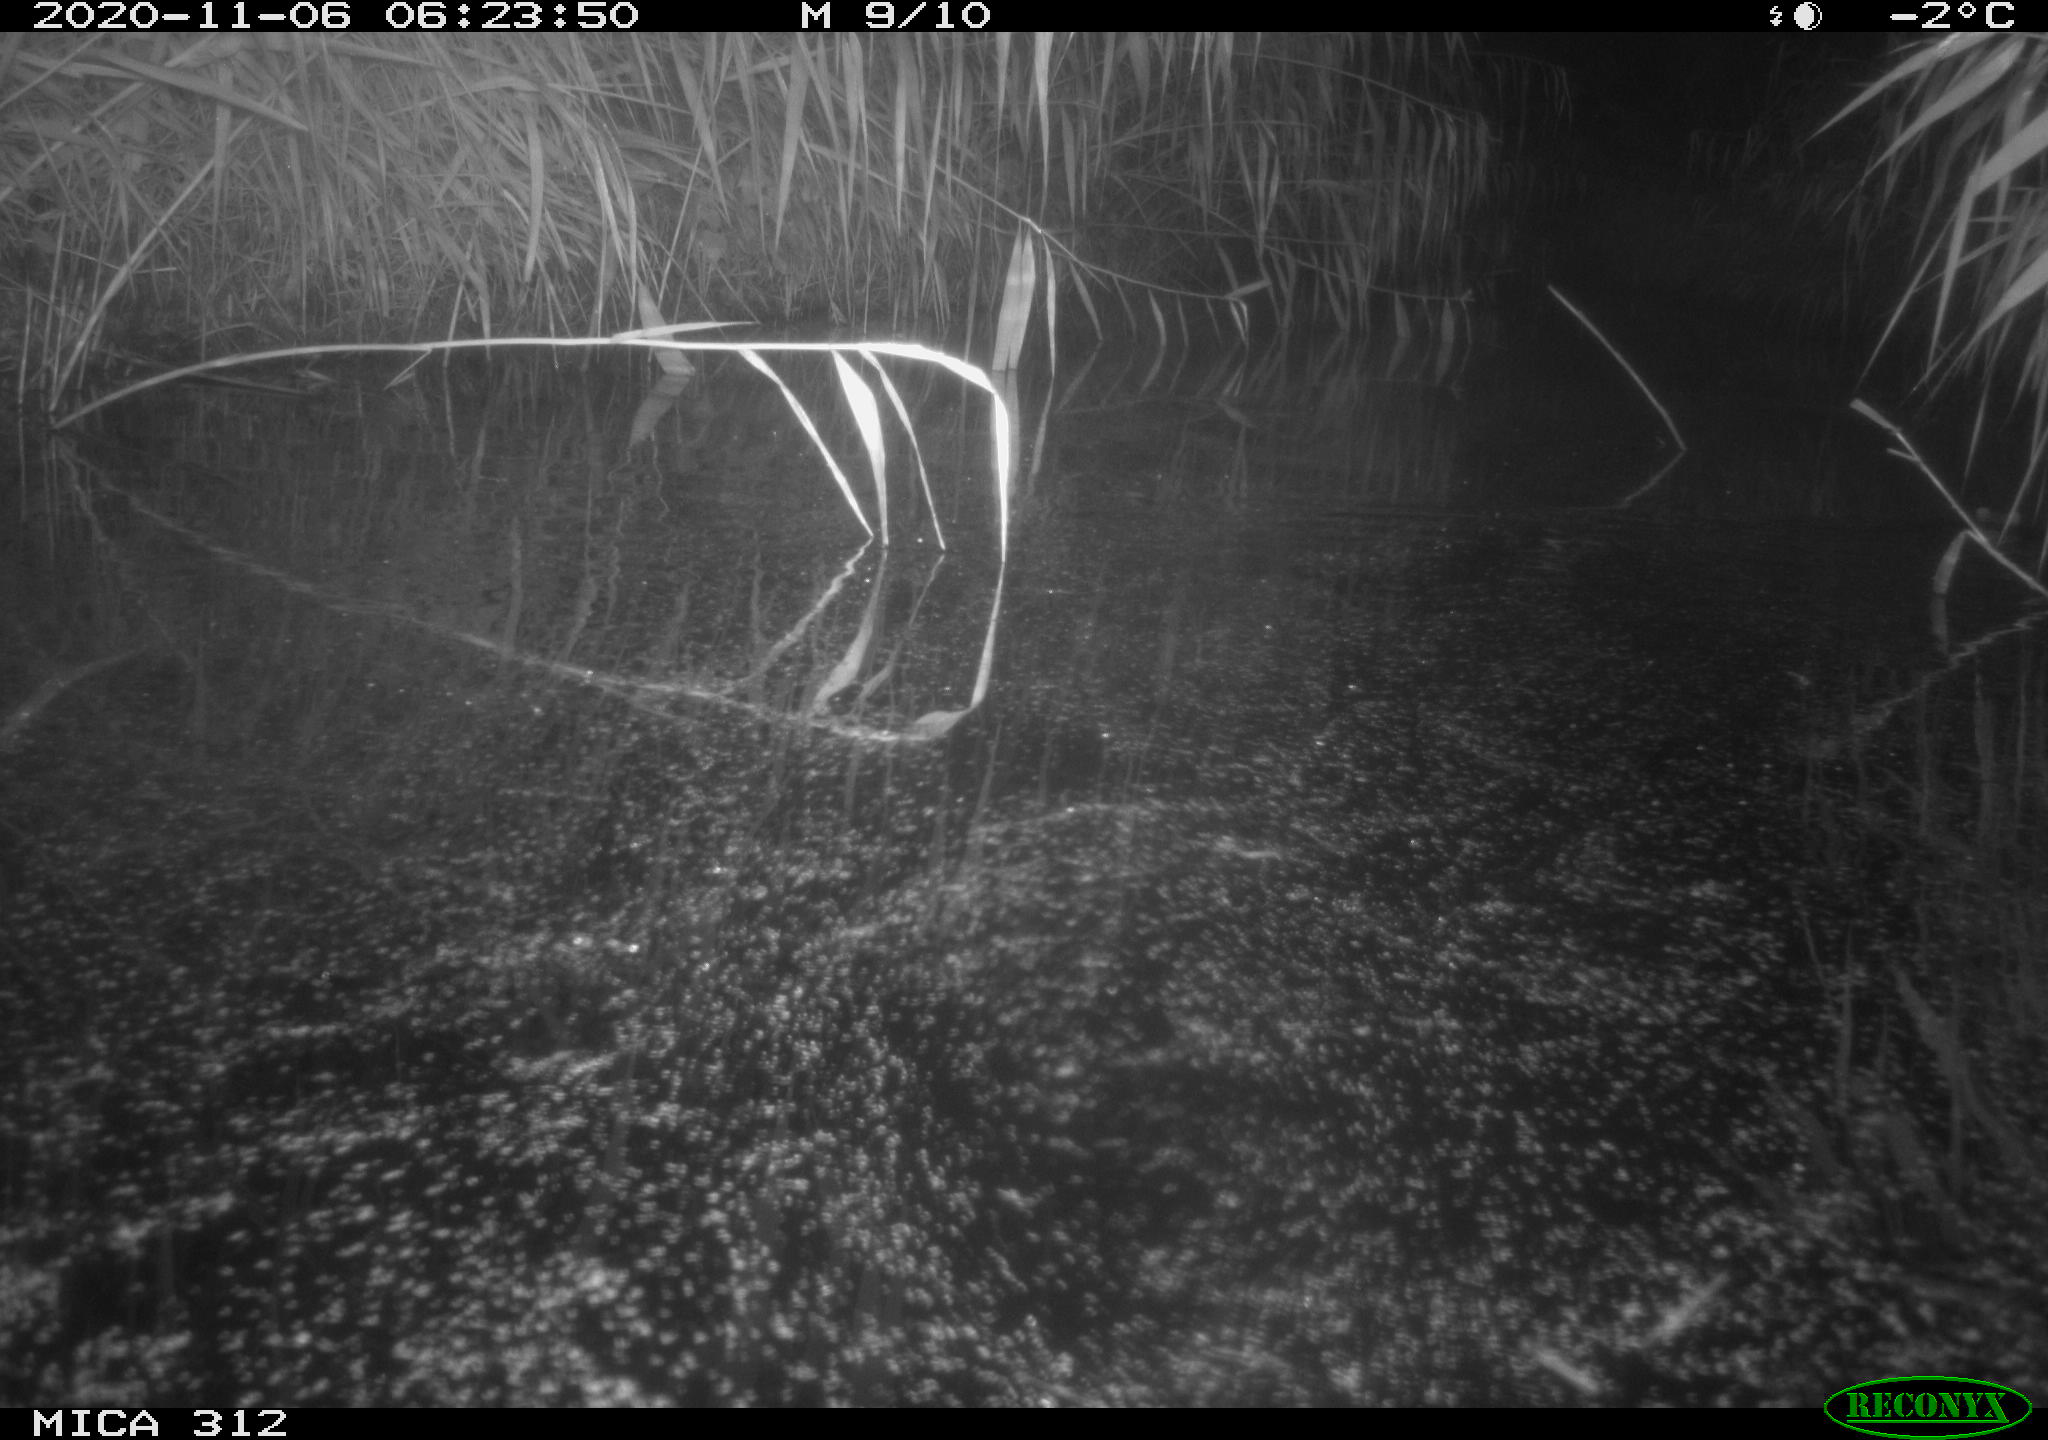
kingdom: Animalia
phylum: Chordata
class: Mammalia
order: Rodentia
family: Muridae
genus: Rattus
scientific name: Rattus norvegicus
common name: Brown rat
